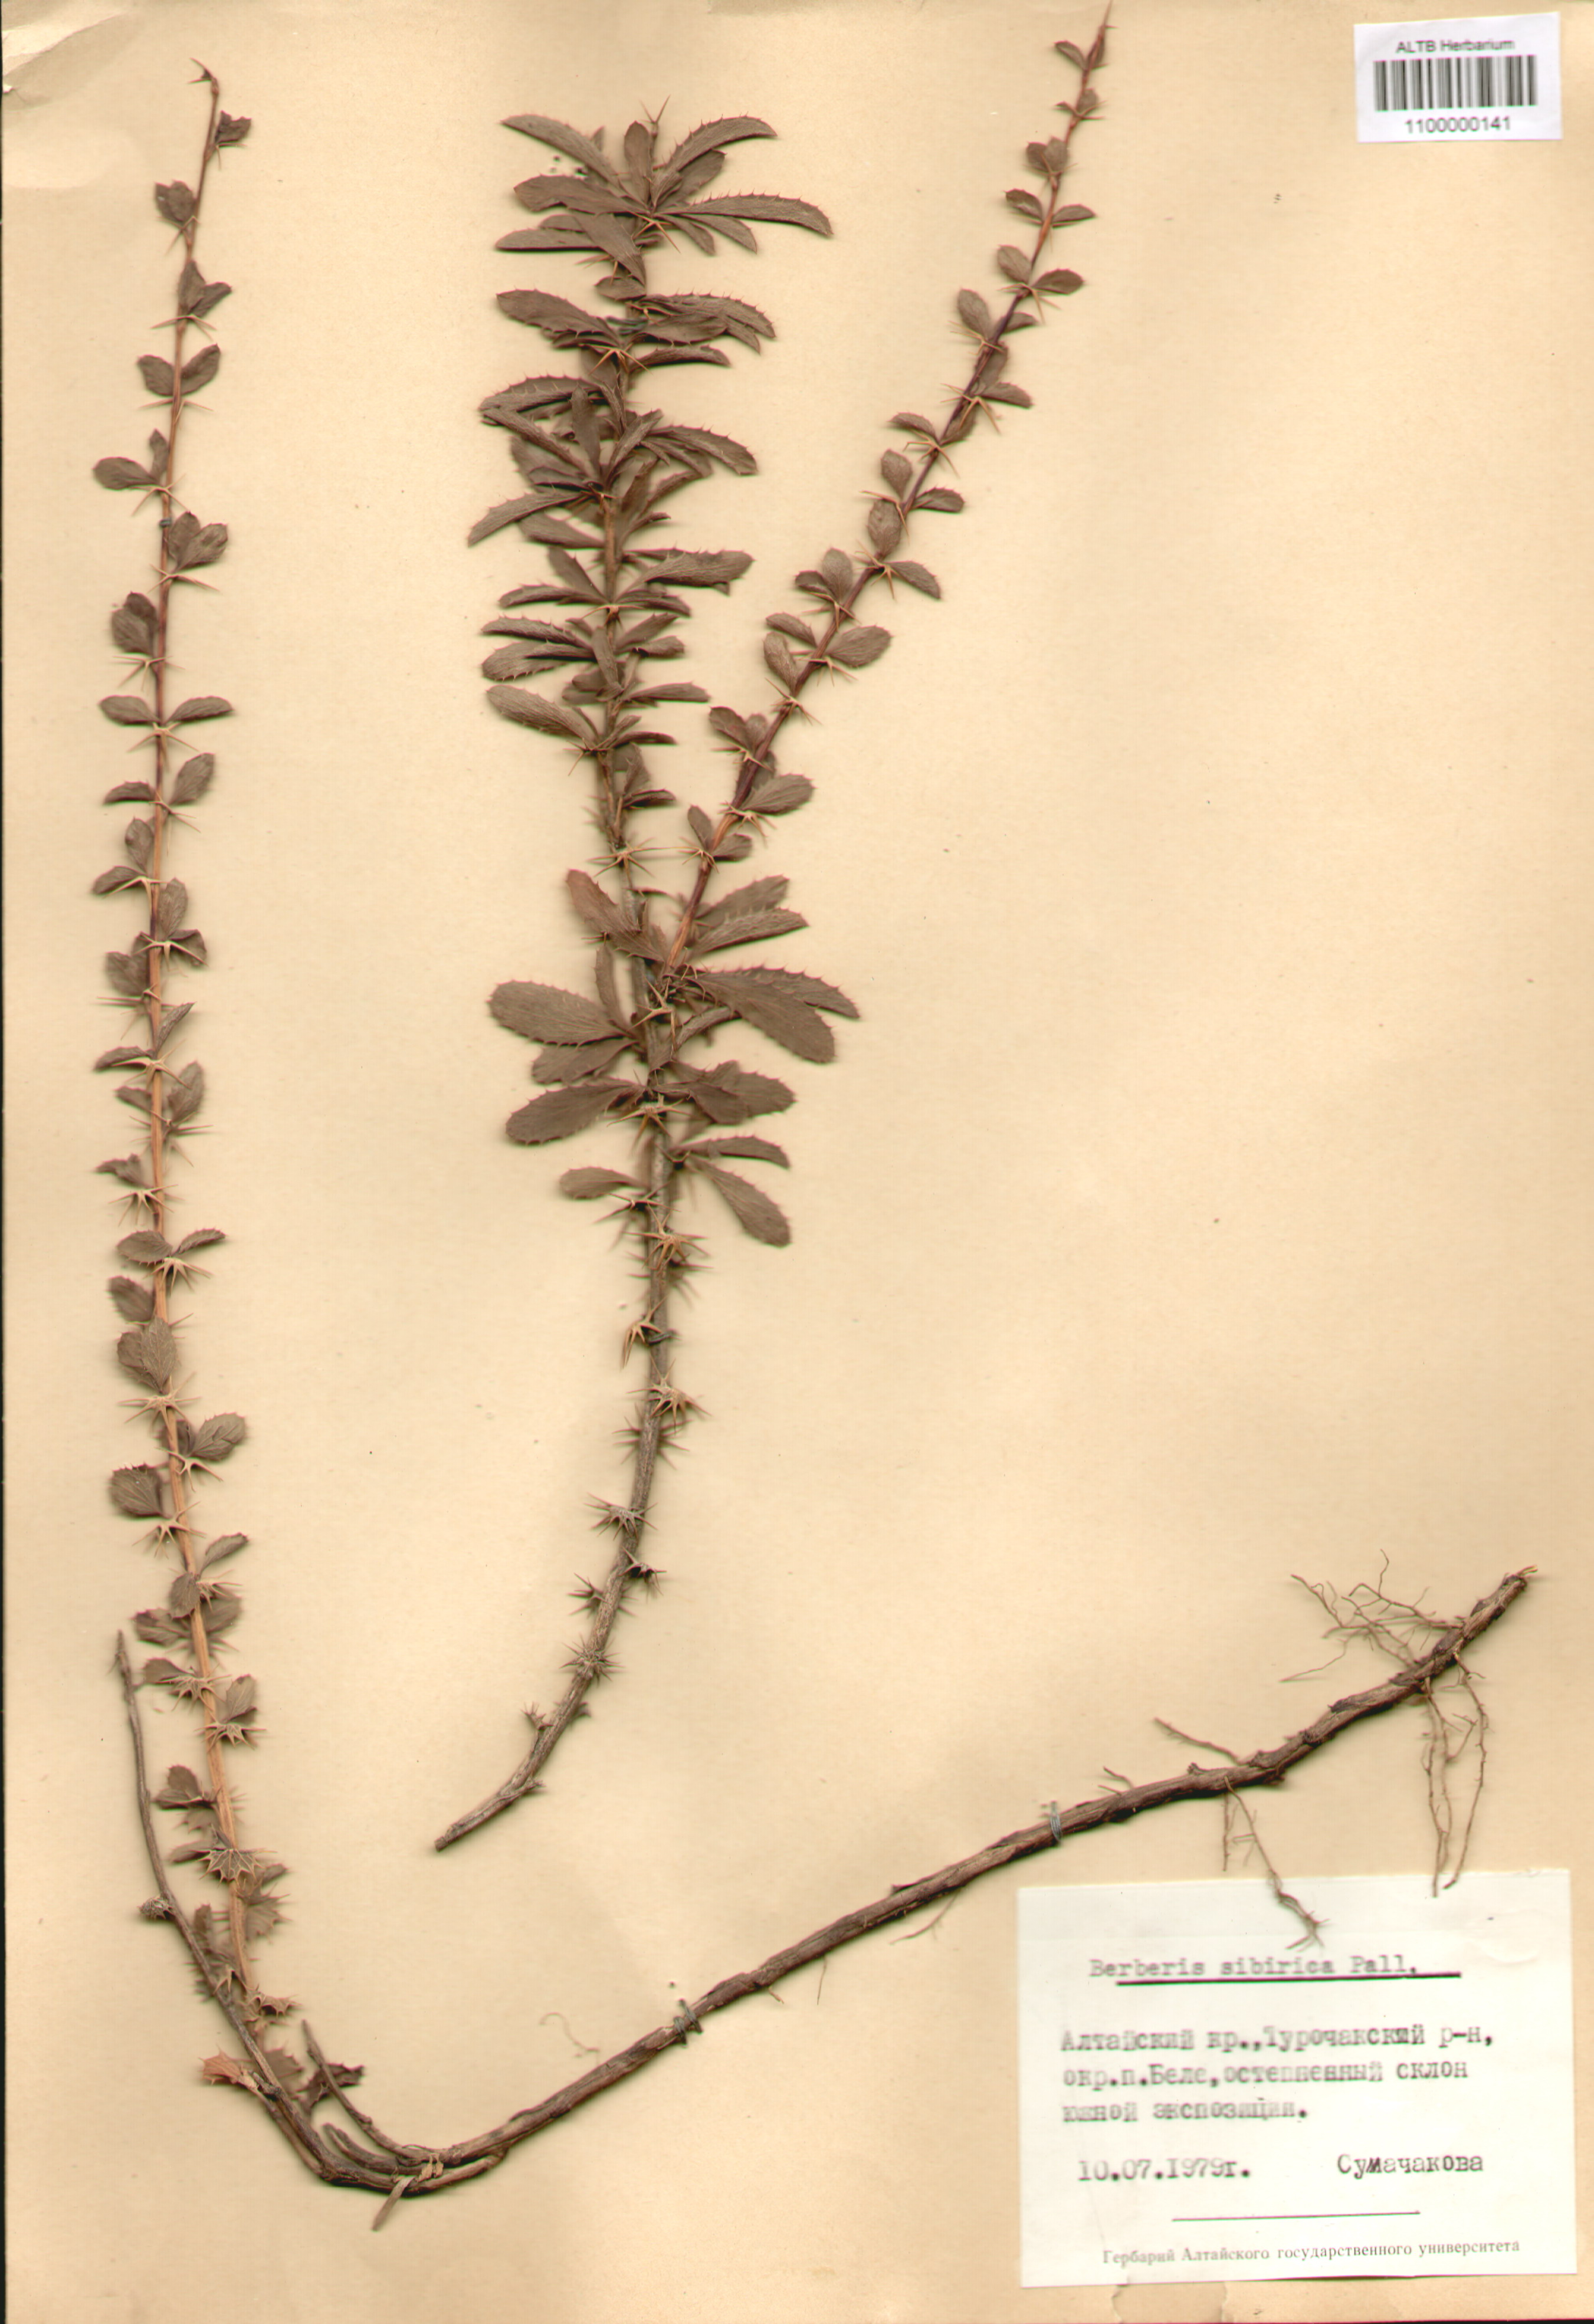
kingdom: Plantae
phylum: Tracheophyta
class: Magnoliopsida
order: Ranunculales
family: Berberidaceae
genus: Berberis
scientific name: Berberis sibirica
